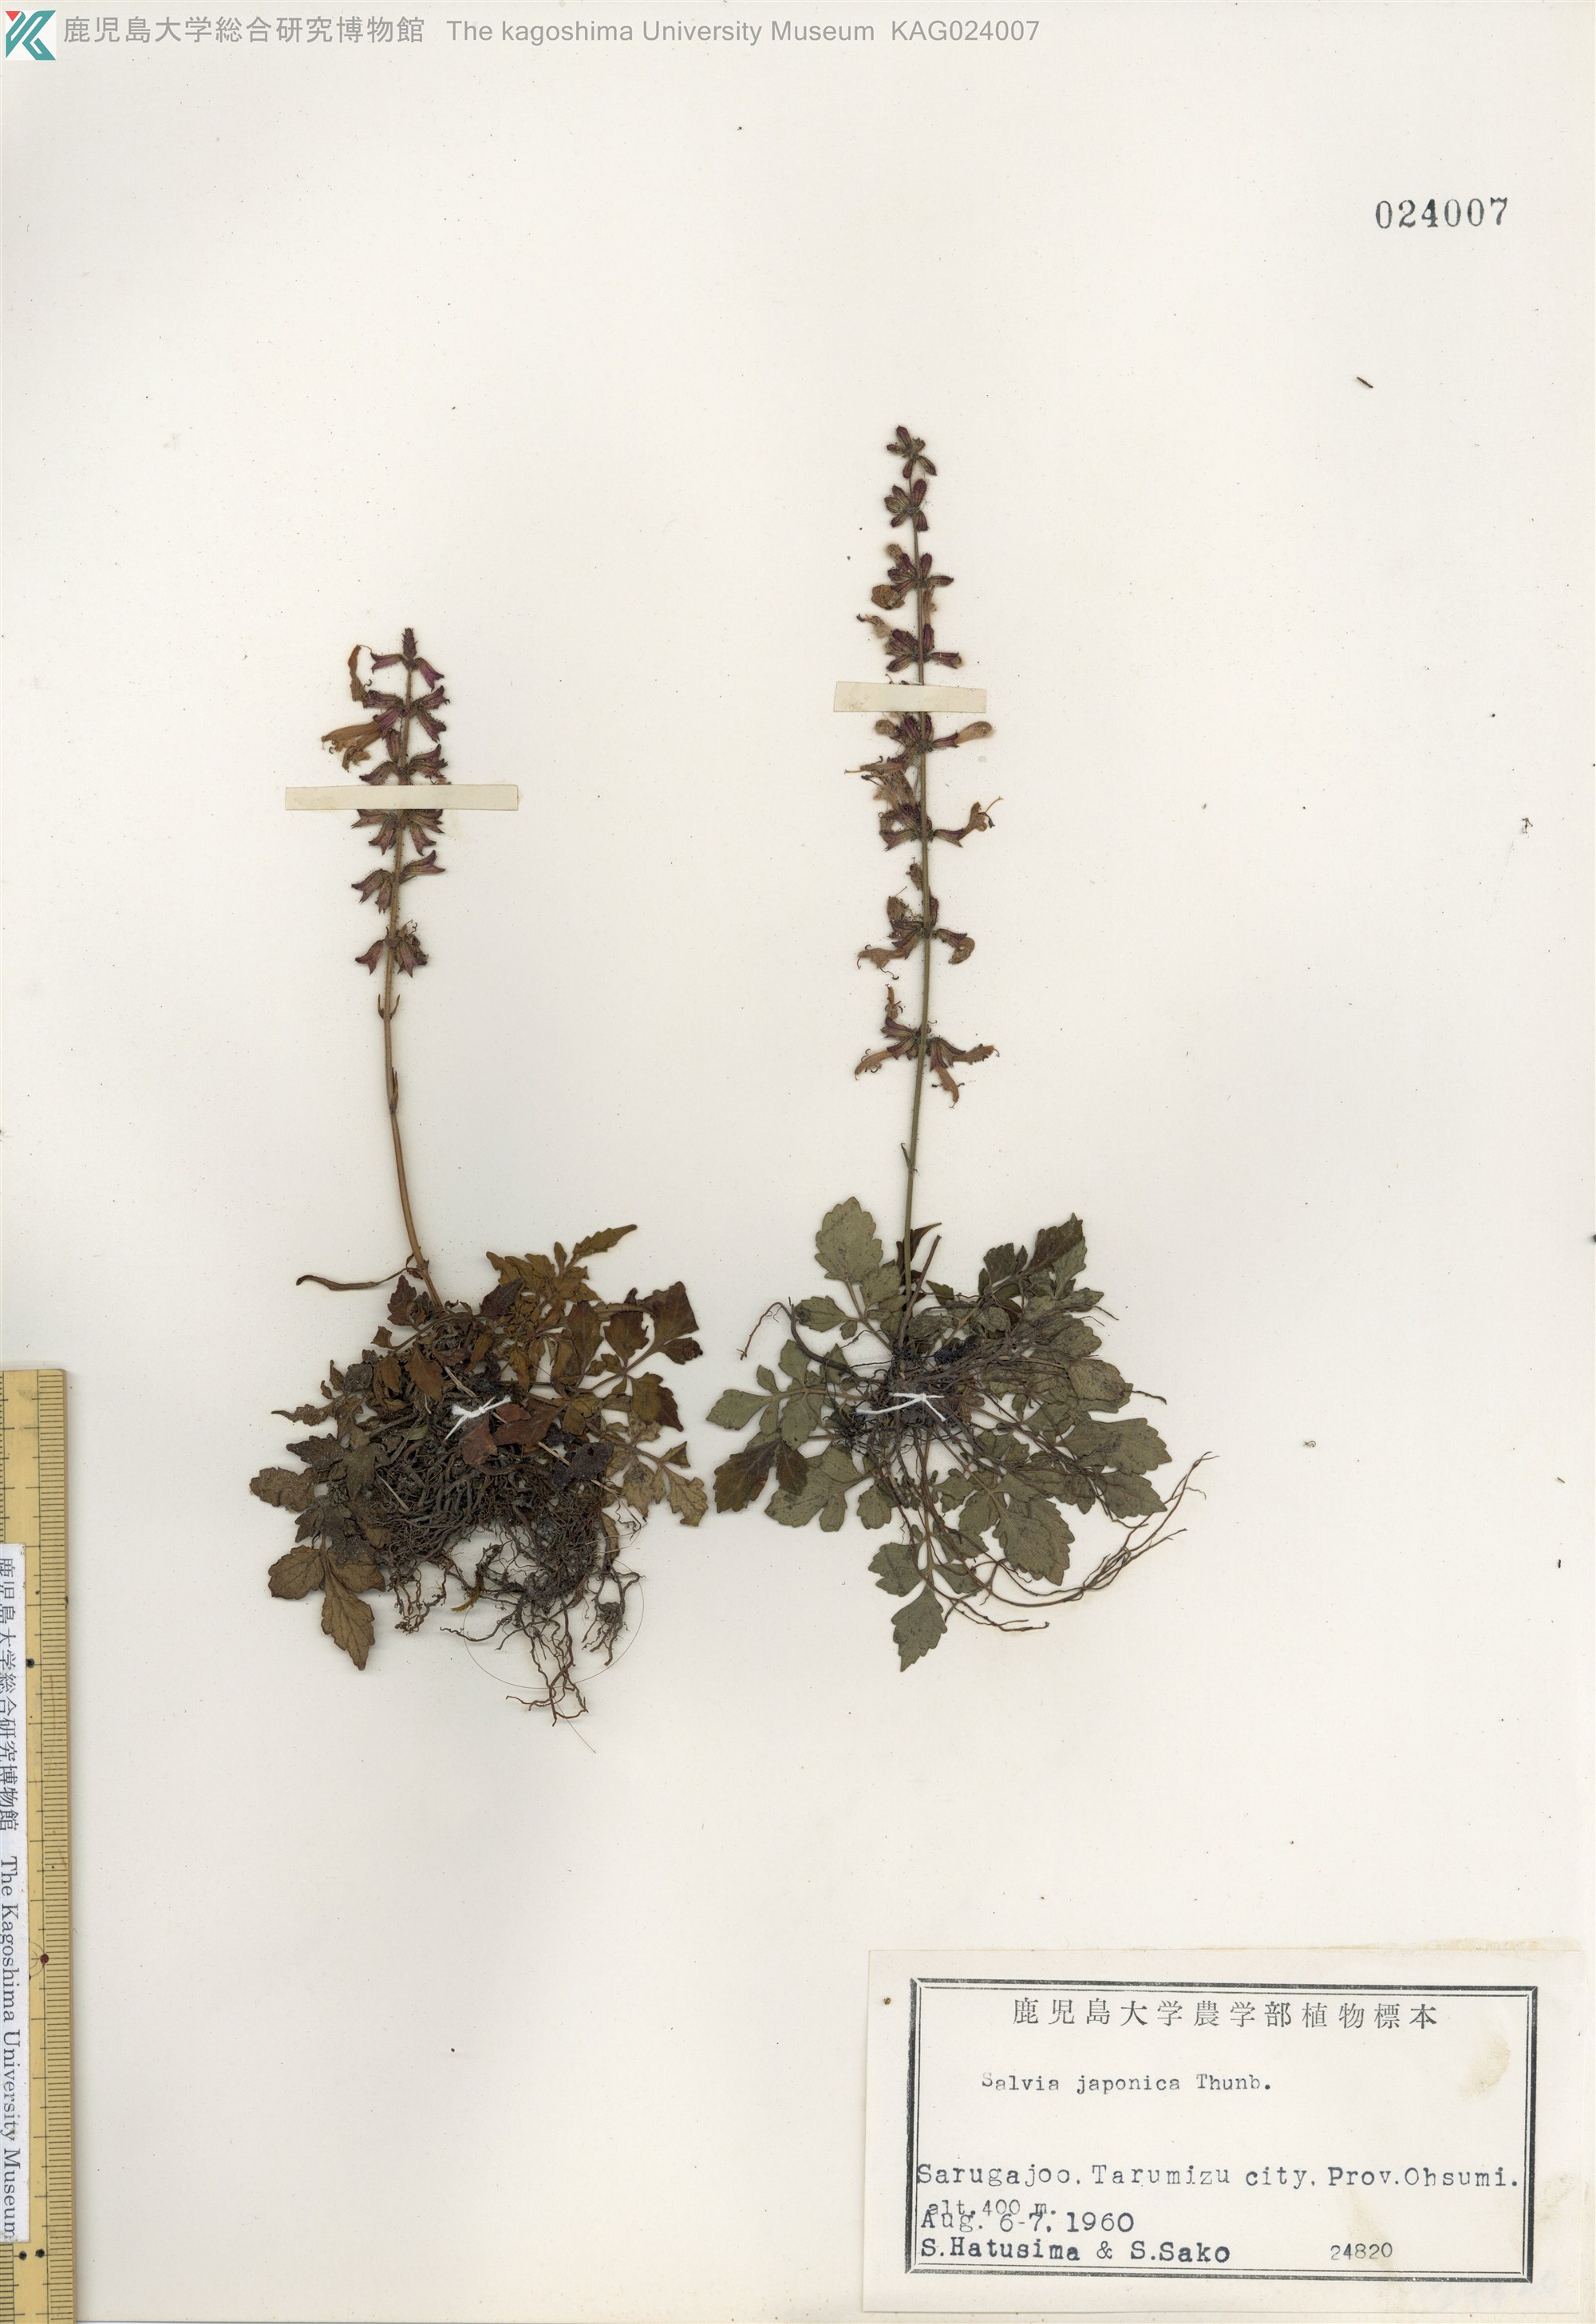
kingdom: Plantae
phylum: Tracheophyta
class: Magnoliopsida
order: Lamiales
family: Lamiaceae
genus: Salvia
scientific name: Salvia japonica
